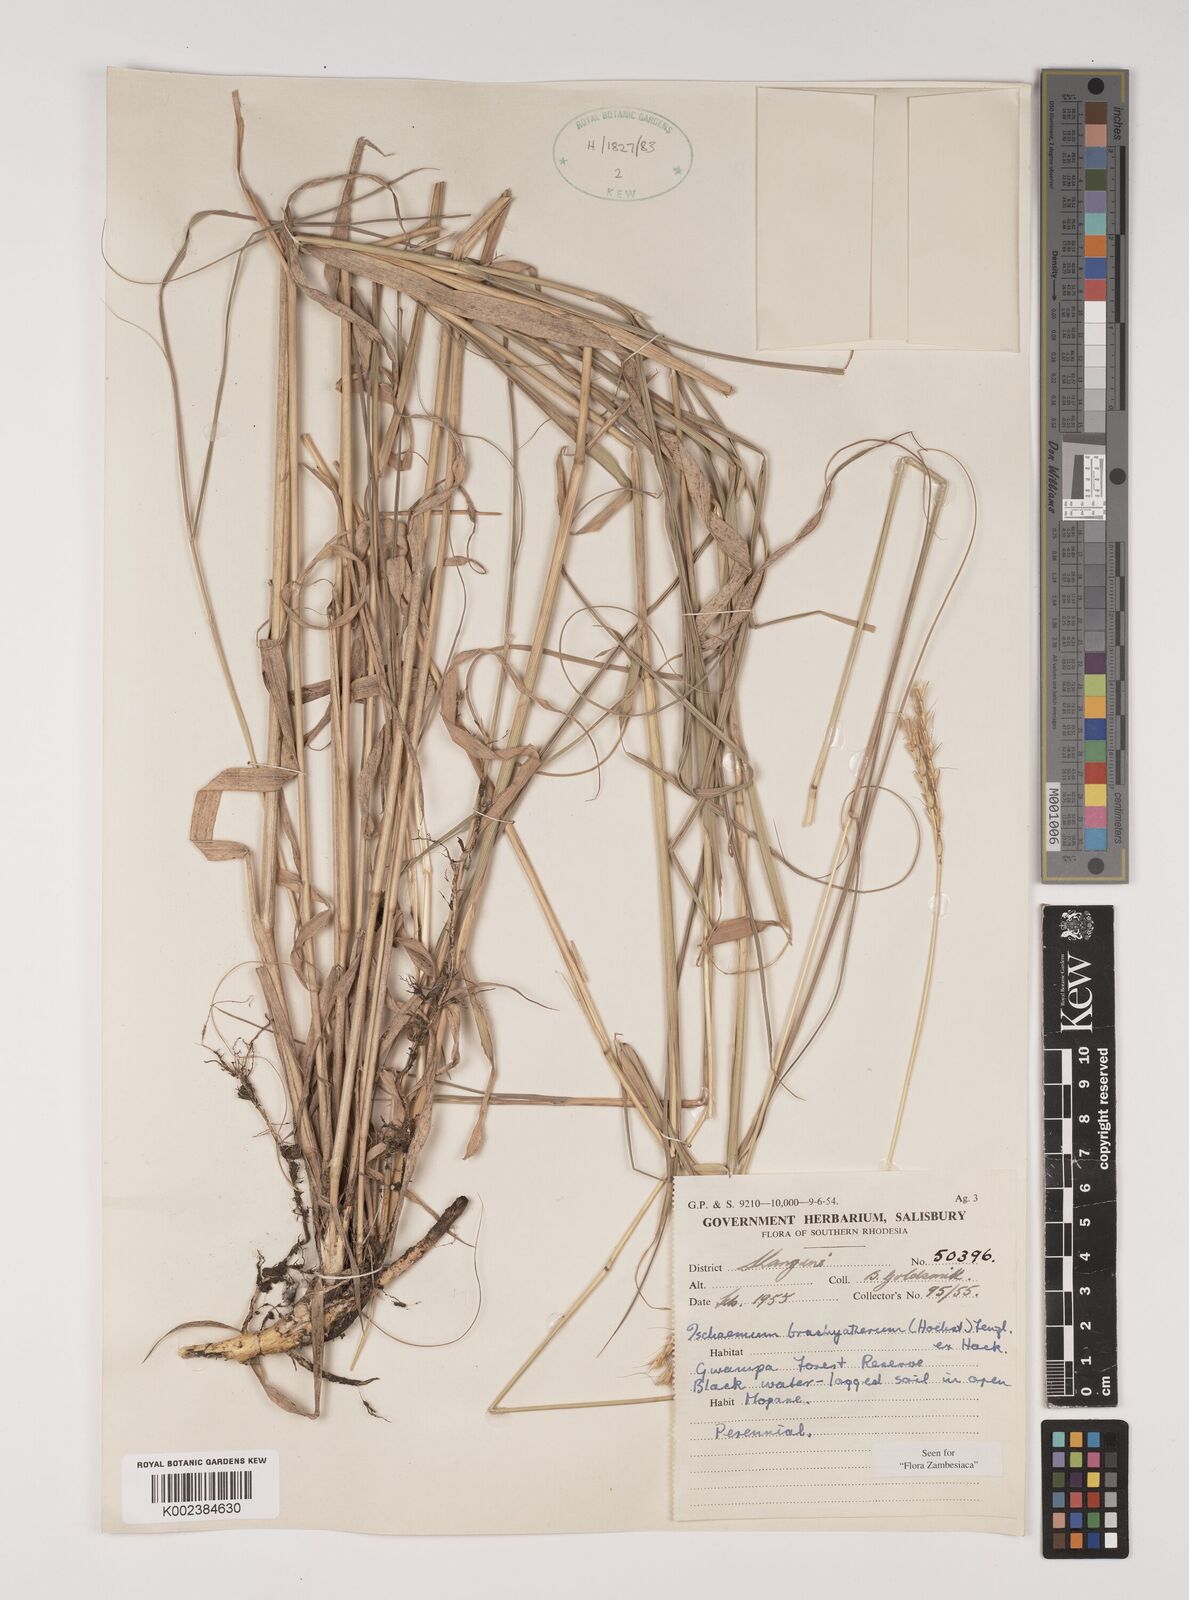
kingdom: Plantae
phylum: Tracheophyta
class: Liliopsida
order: Poales
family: Poaceae
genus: Ischaemum
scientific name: Ischaemum afrum
